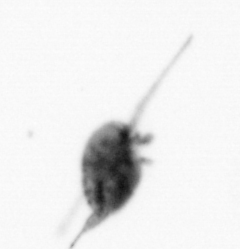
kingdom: Animalia
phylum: Arthropoda
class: Copepoda
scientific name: Copepoda
